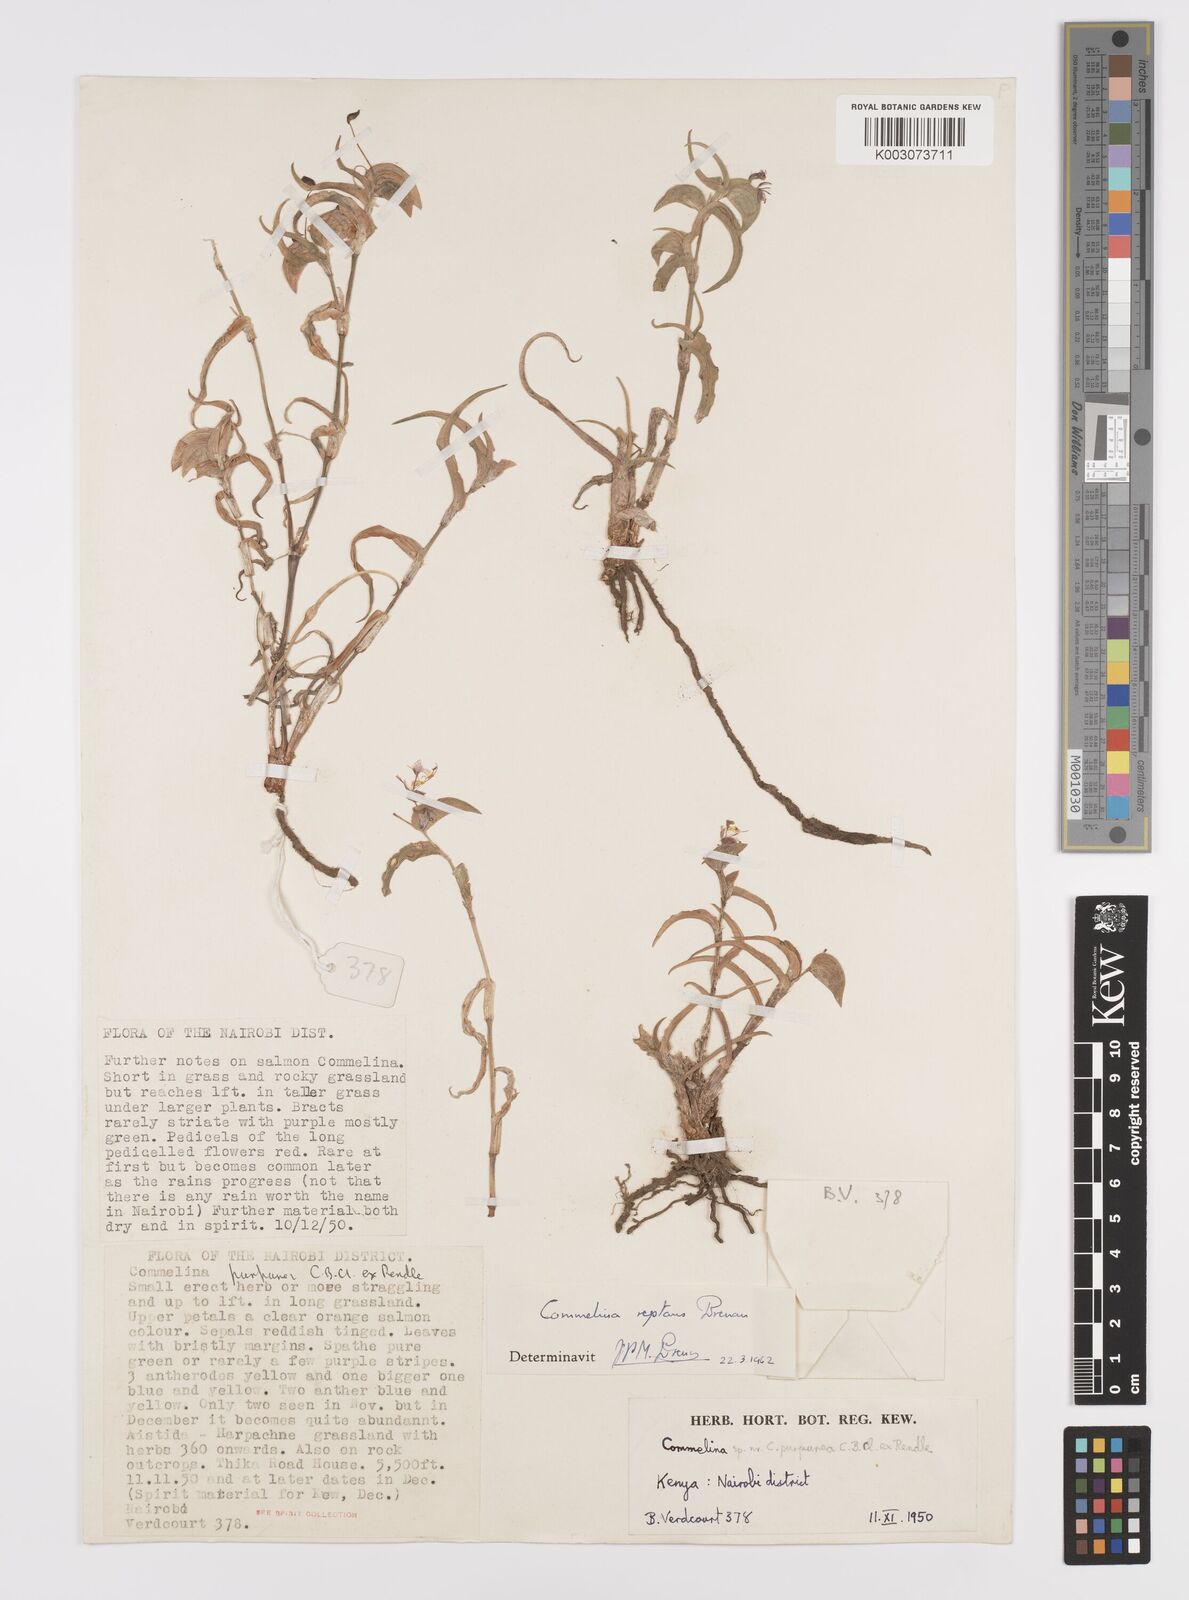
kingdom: Plantae
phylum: Tracheophyta
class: Liliopsida
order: Commelinales
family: Commelinaceae
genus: Commelina
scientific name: Commelina reptans
